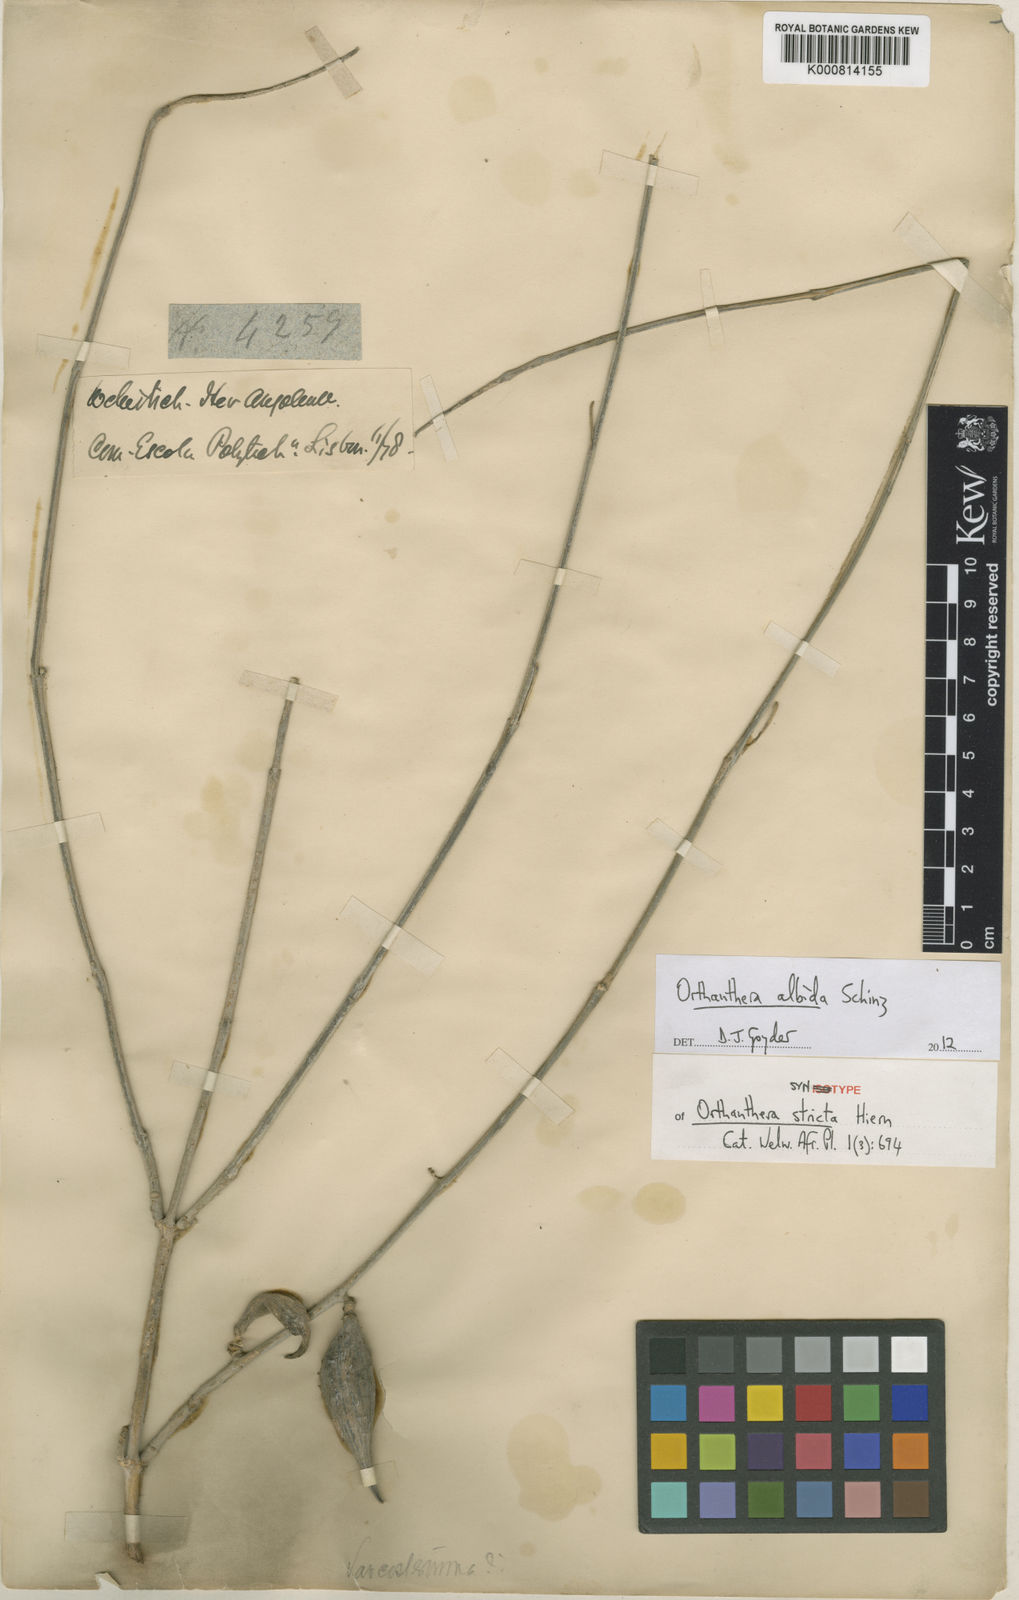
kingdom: Plantae
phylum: Tracheophyta
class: Magnoliopsida
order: Gentianales
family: Apocynaceae
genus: Orthanthera
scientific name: Orthanthera albida
